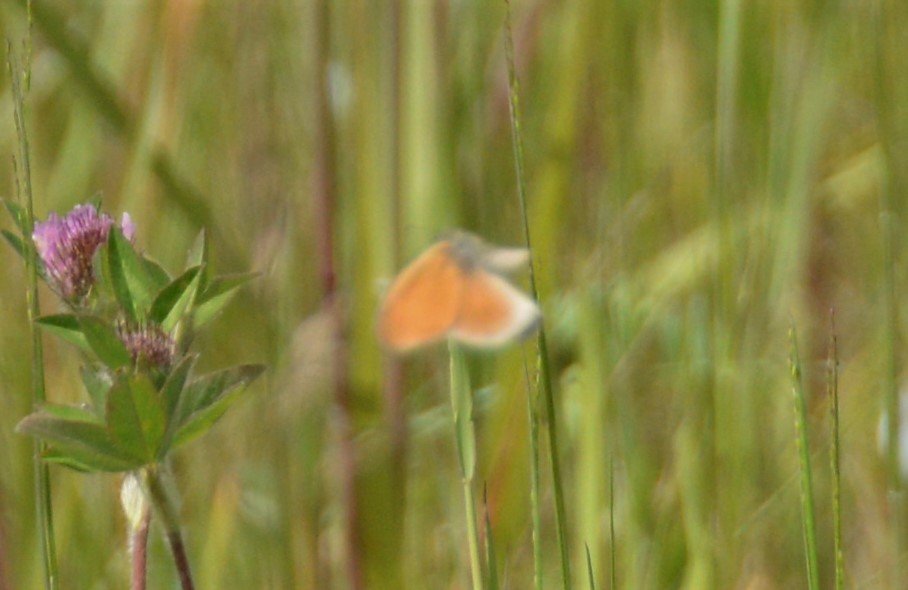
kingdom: Animalia
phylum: Arthropoda
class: Insecta
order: Lepidoptera
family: Nymphalidae
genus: Coenonympha
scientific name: Coenonympha tullia
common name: Large Heath
